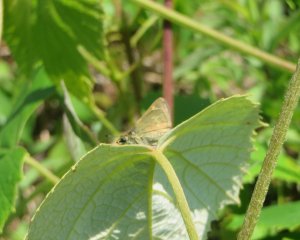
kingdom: Animalia
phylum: Arthropoda
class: Insecta
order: Lepidoptera
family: Hesperiidae
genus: Polites
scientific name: Polites themistocles
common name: Tawny-edged Skipper
